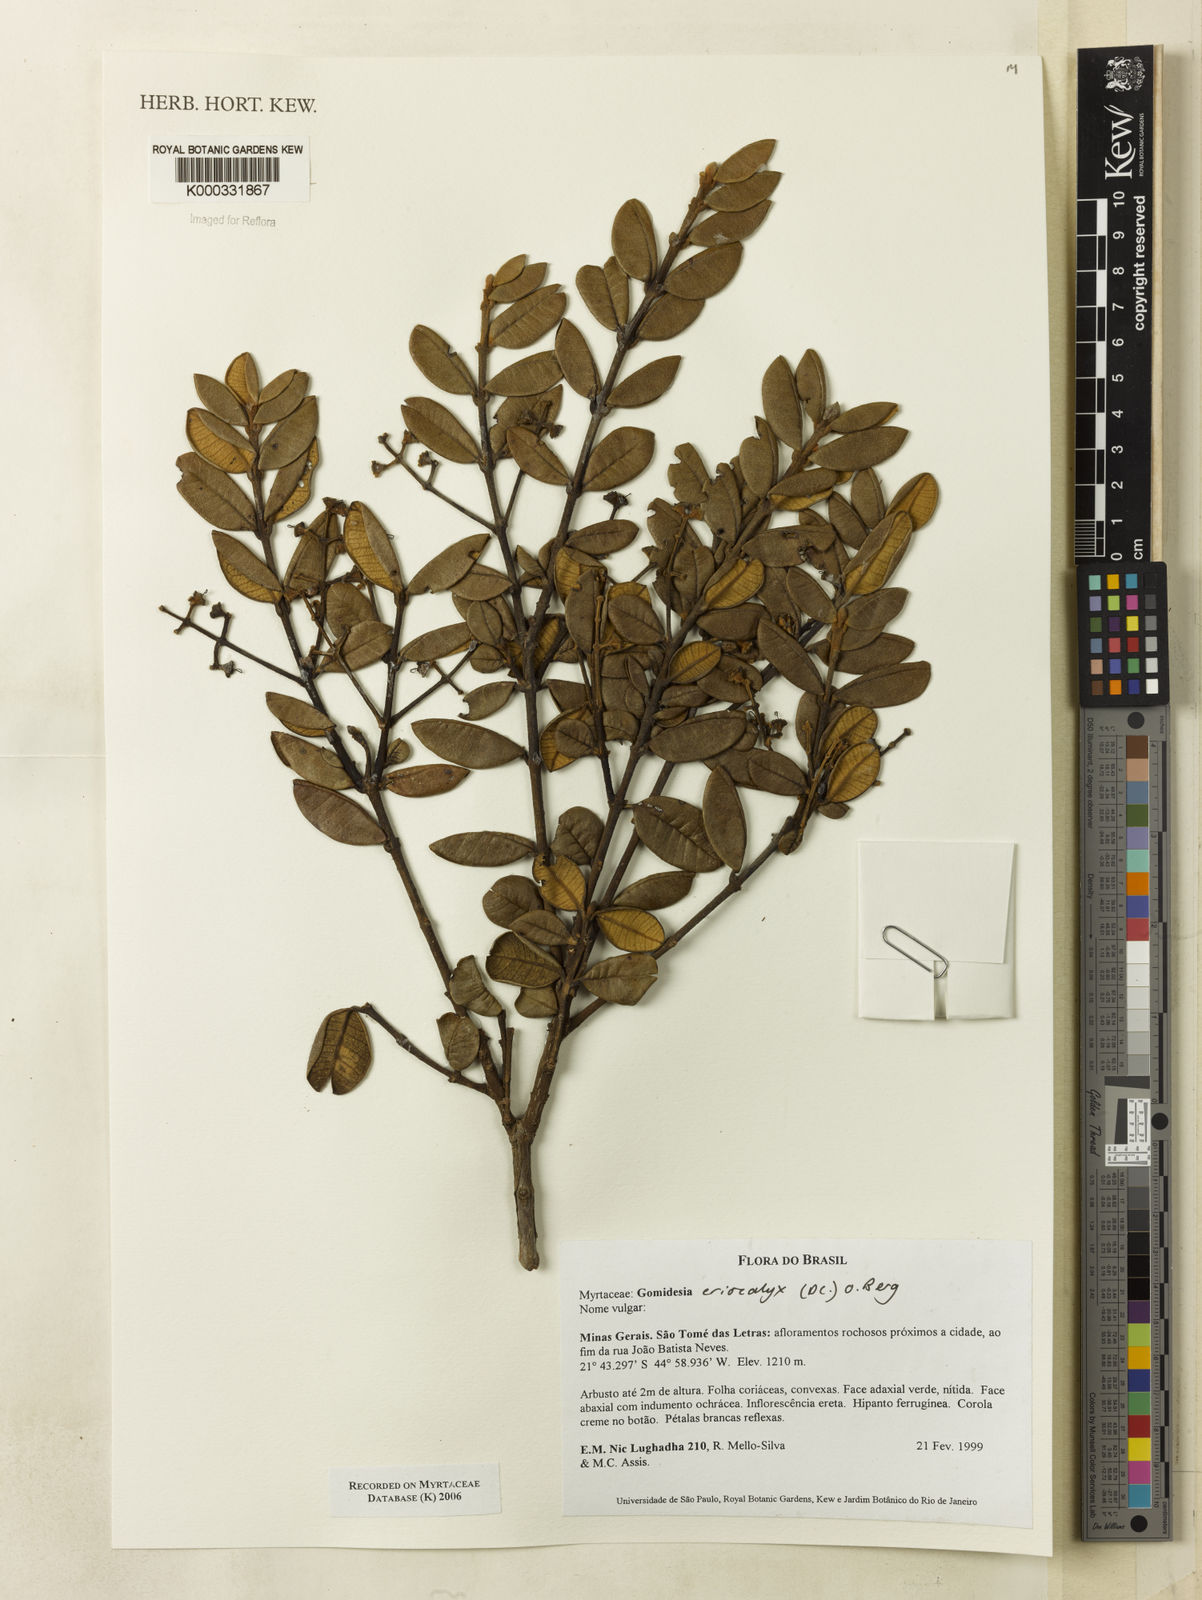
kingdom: Plantae
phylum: Tracheophyta
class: Magnoliopsida
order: Myrtales
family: Myrtaceae
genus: Myrcia
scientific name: Myrcia eriocalyx
